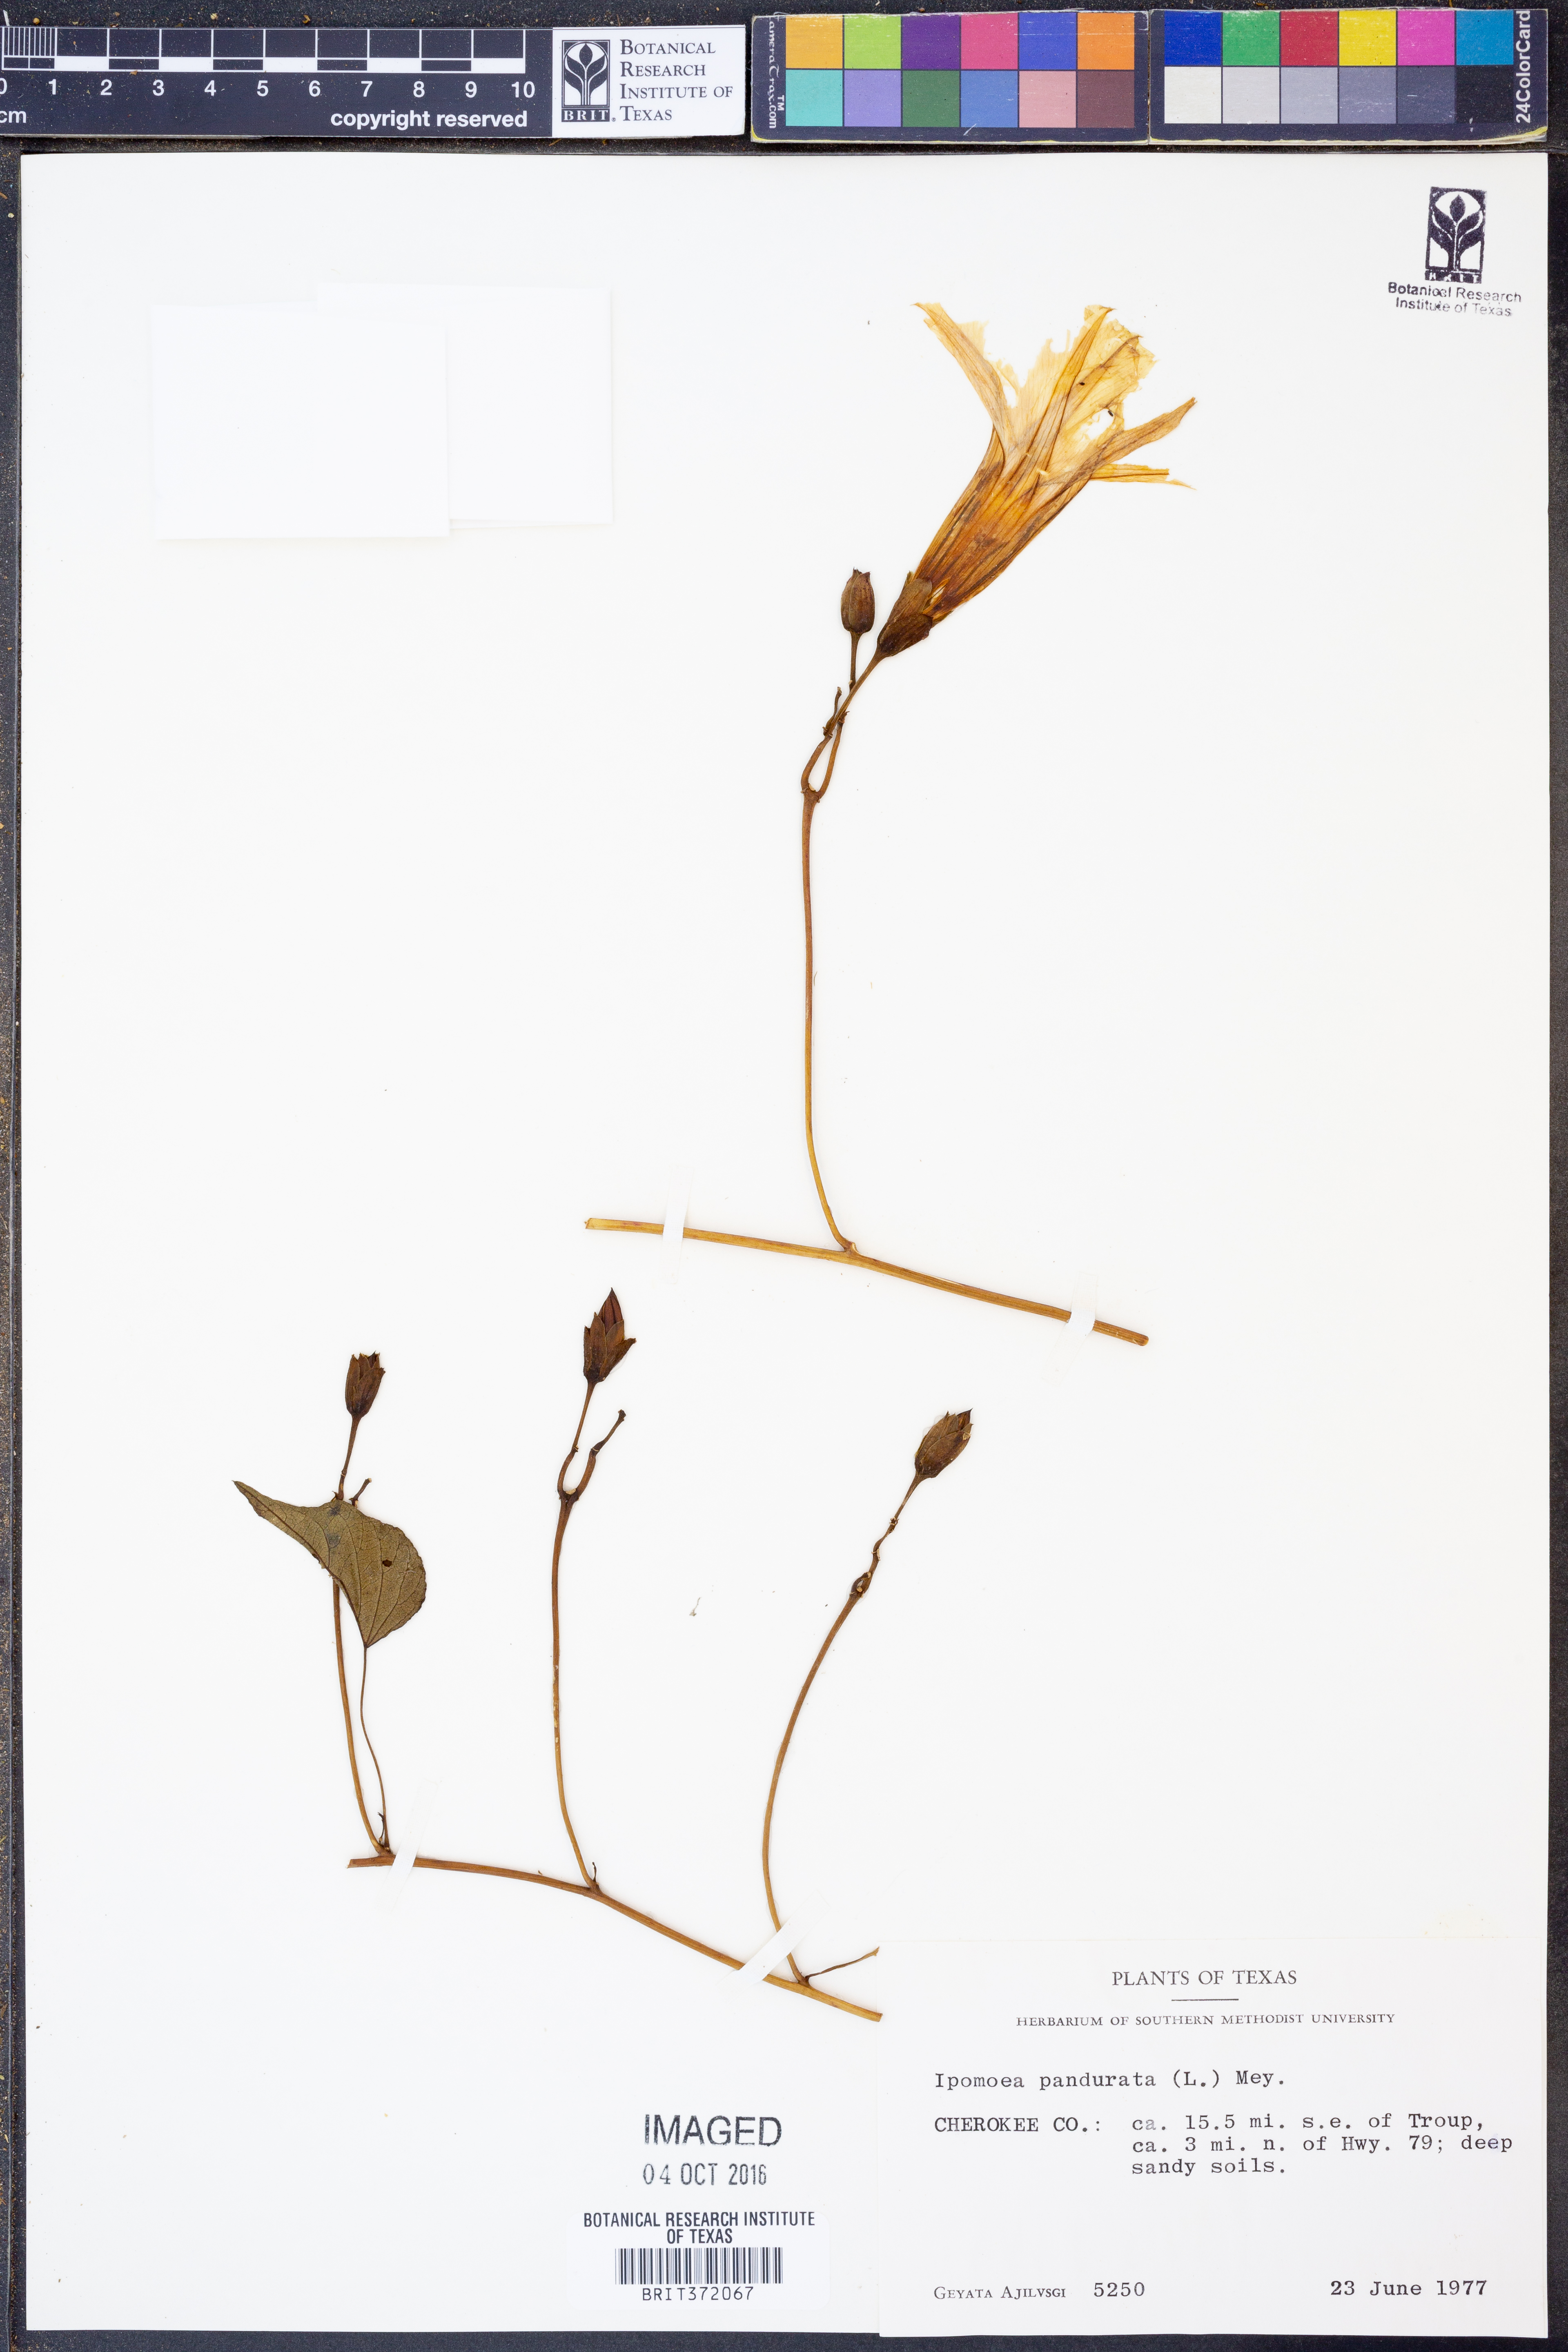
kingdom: Plantae
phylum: Tracheophyta
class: Magnoliopsida
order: Solanales
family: Convolvulaceae
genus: Ipomoea
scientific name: Ipomoea pandurata
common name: Man-of-the-earth
